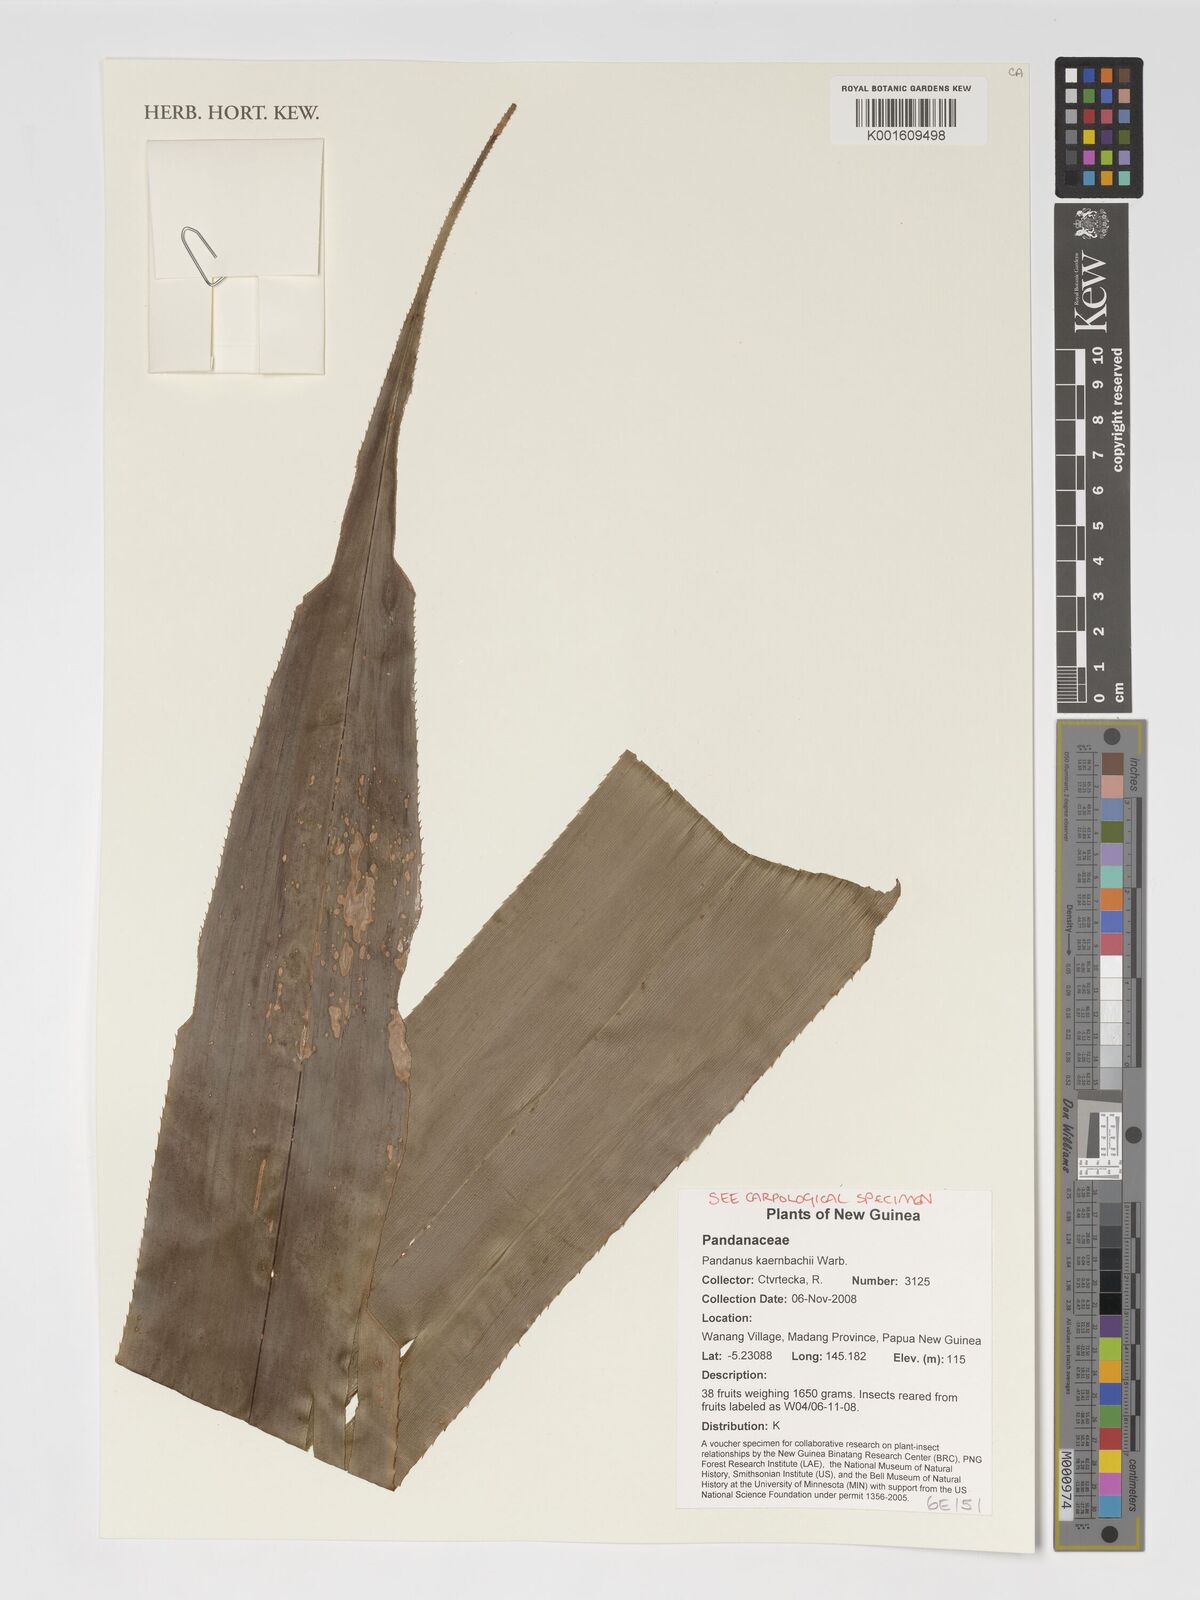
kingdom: Plantae
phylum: Tracheophyta
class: Liliopsida
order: Pandanales
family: Pandanaceae
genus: Pandanus
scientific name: Pandanus kaernbachii
